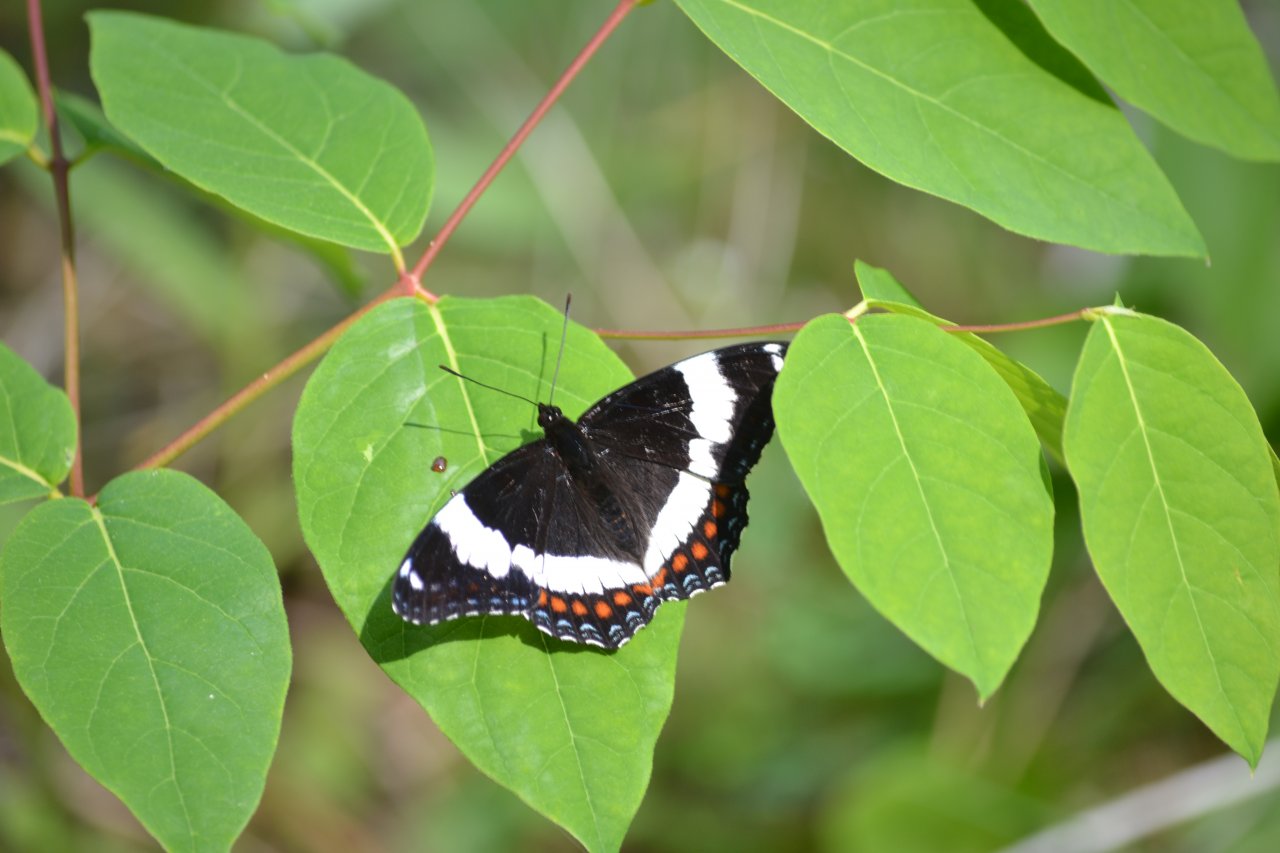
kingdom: Animalia
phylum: Arthropoda
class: Insecta
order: Lepidoptera
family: Nymphalidae
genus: Limenitis
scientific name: Limenitis arthemis
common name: Red-spotted Admiral
